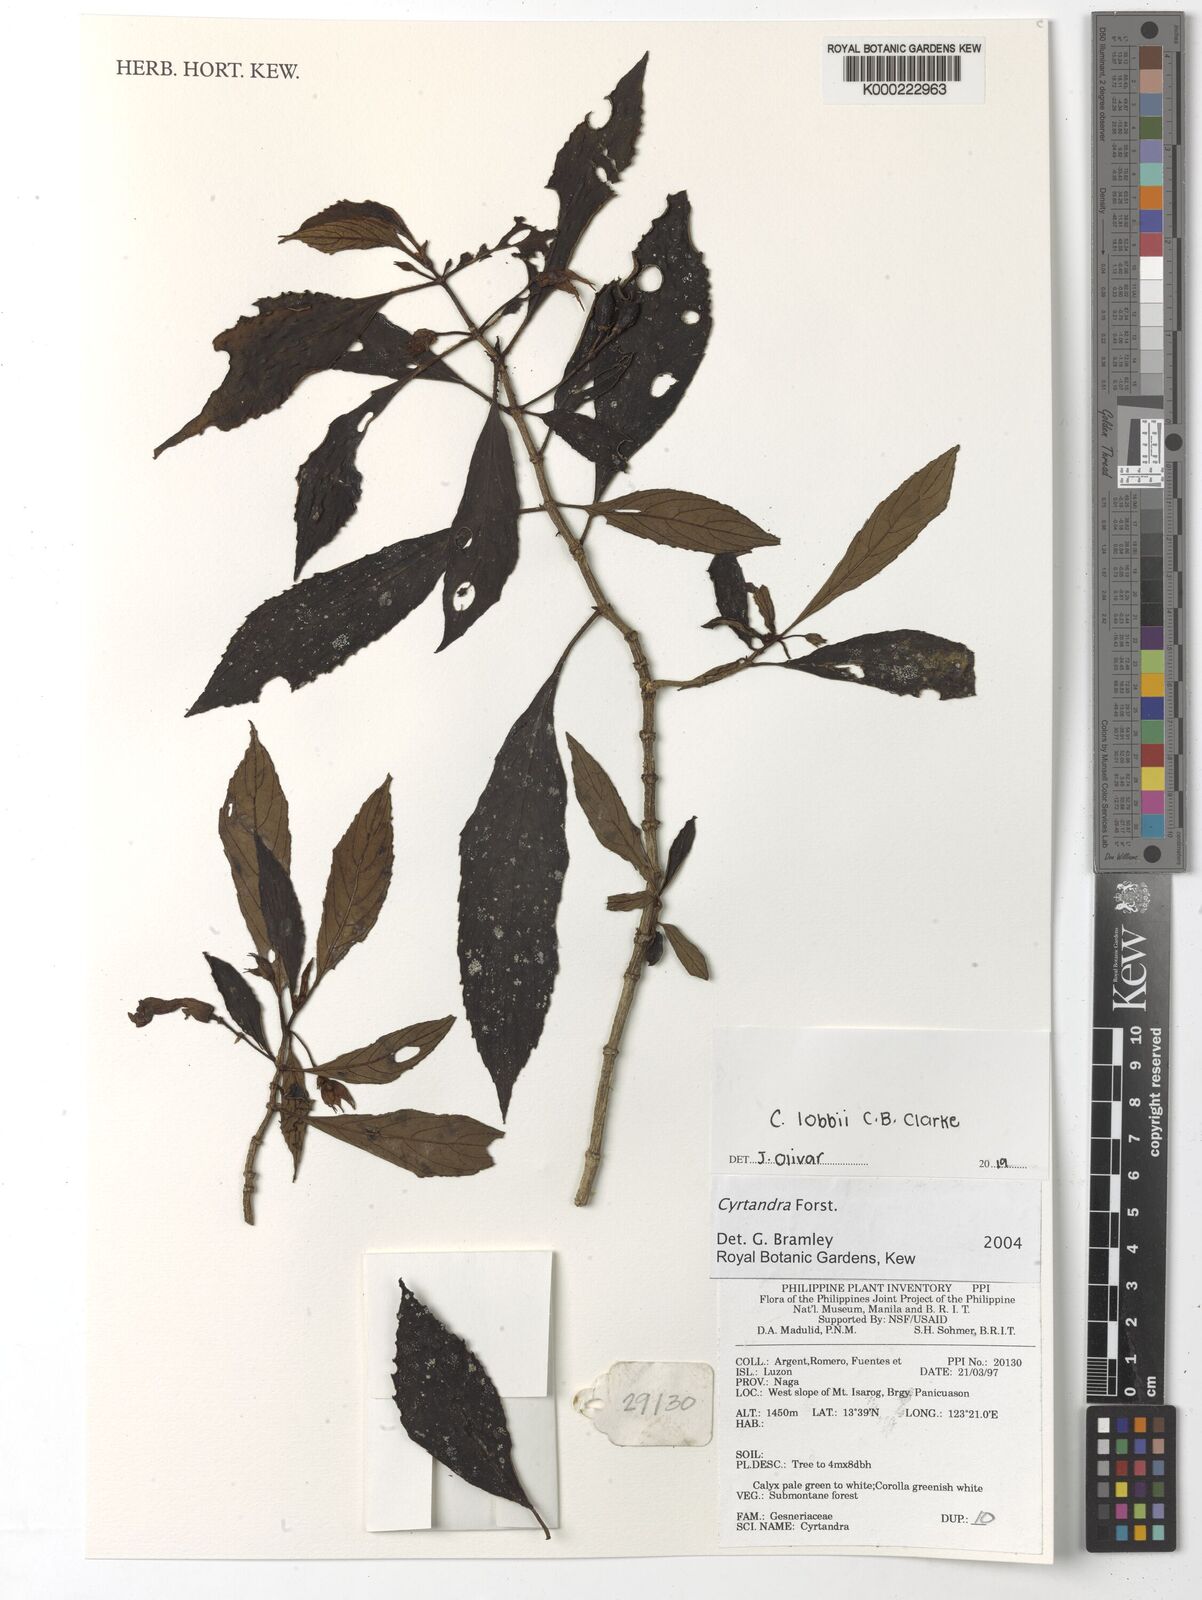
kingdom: Plantae
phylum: Tracheophyta
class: Magnoliopsida
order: Lamiales
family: Gesneriaceae
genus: Cyrtandra
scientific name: Cyrtandra
